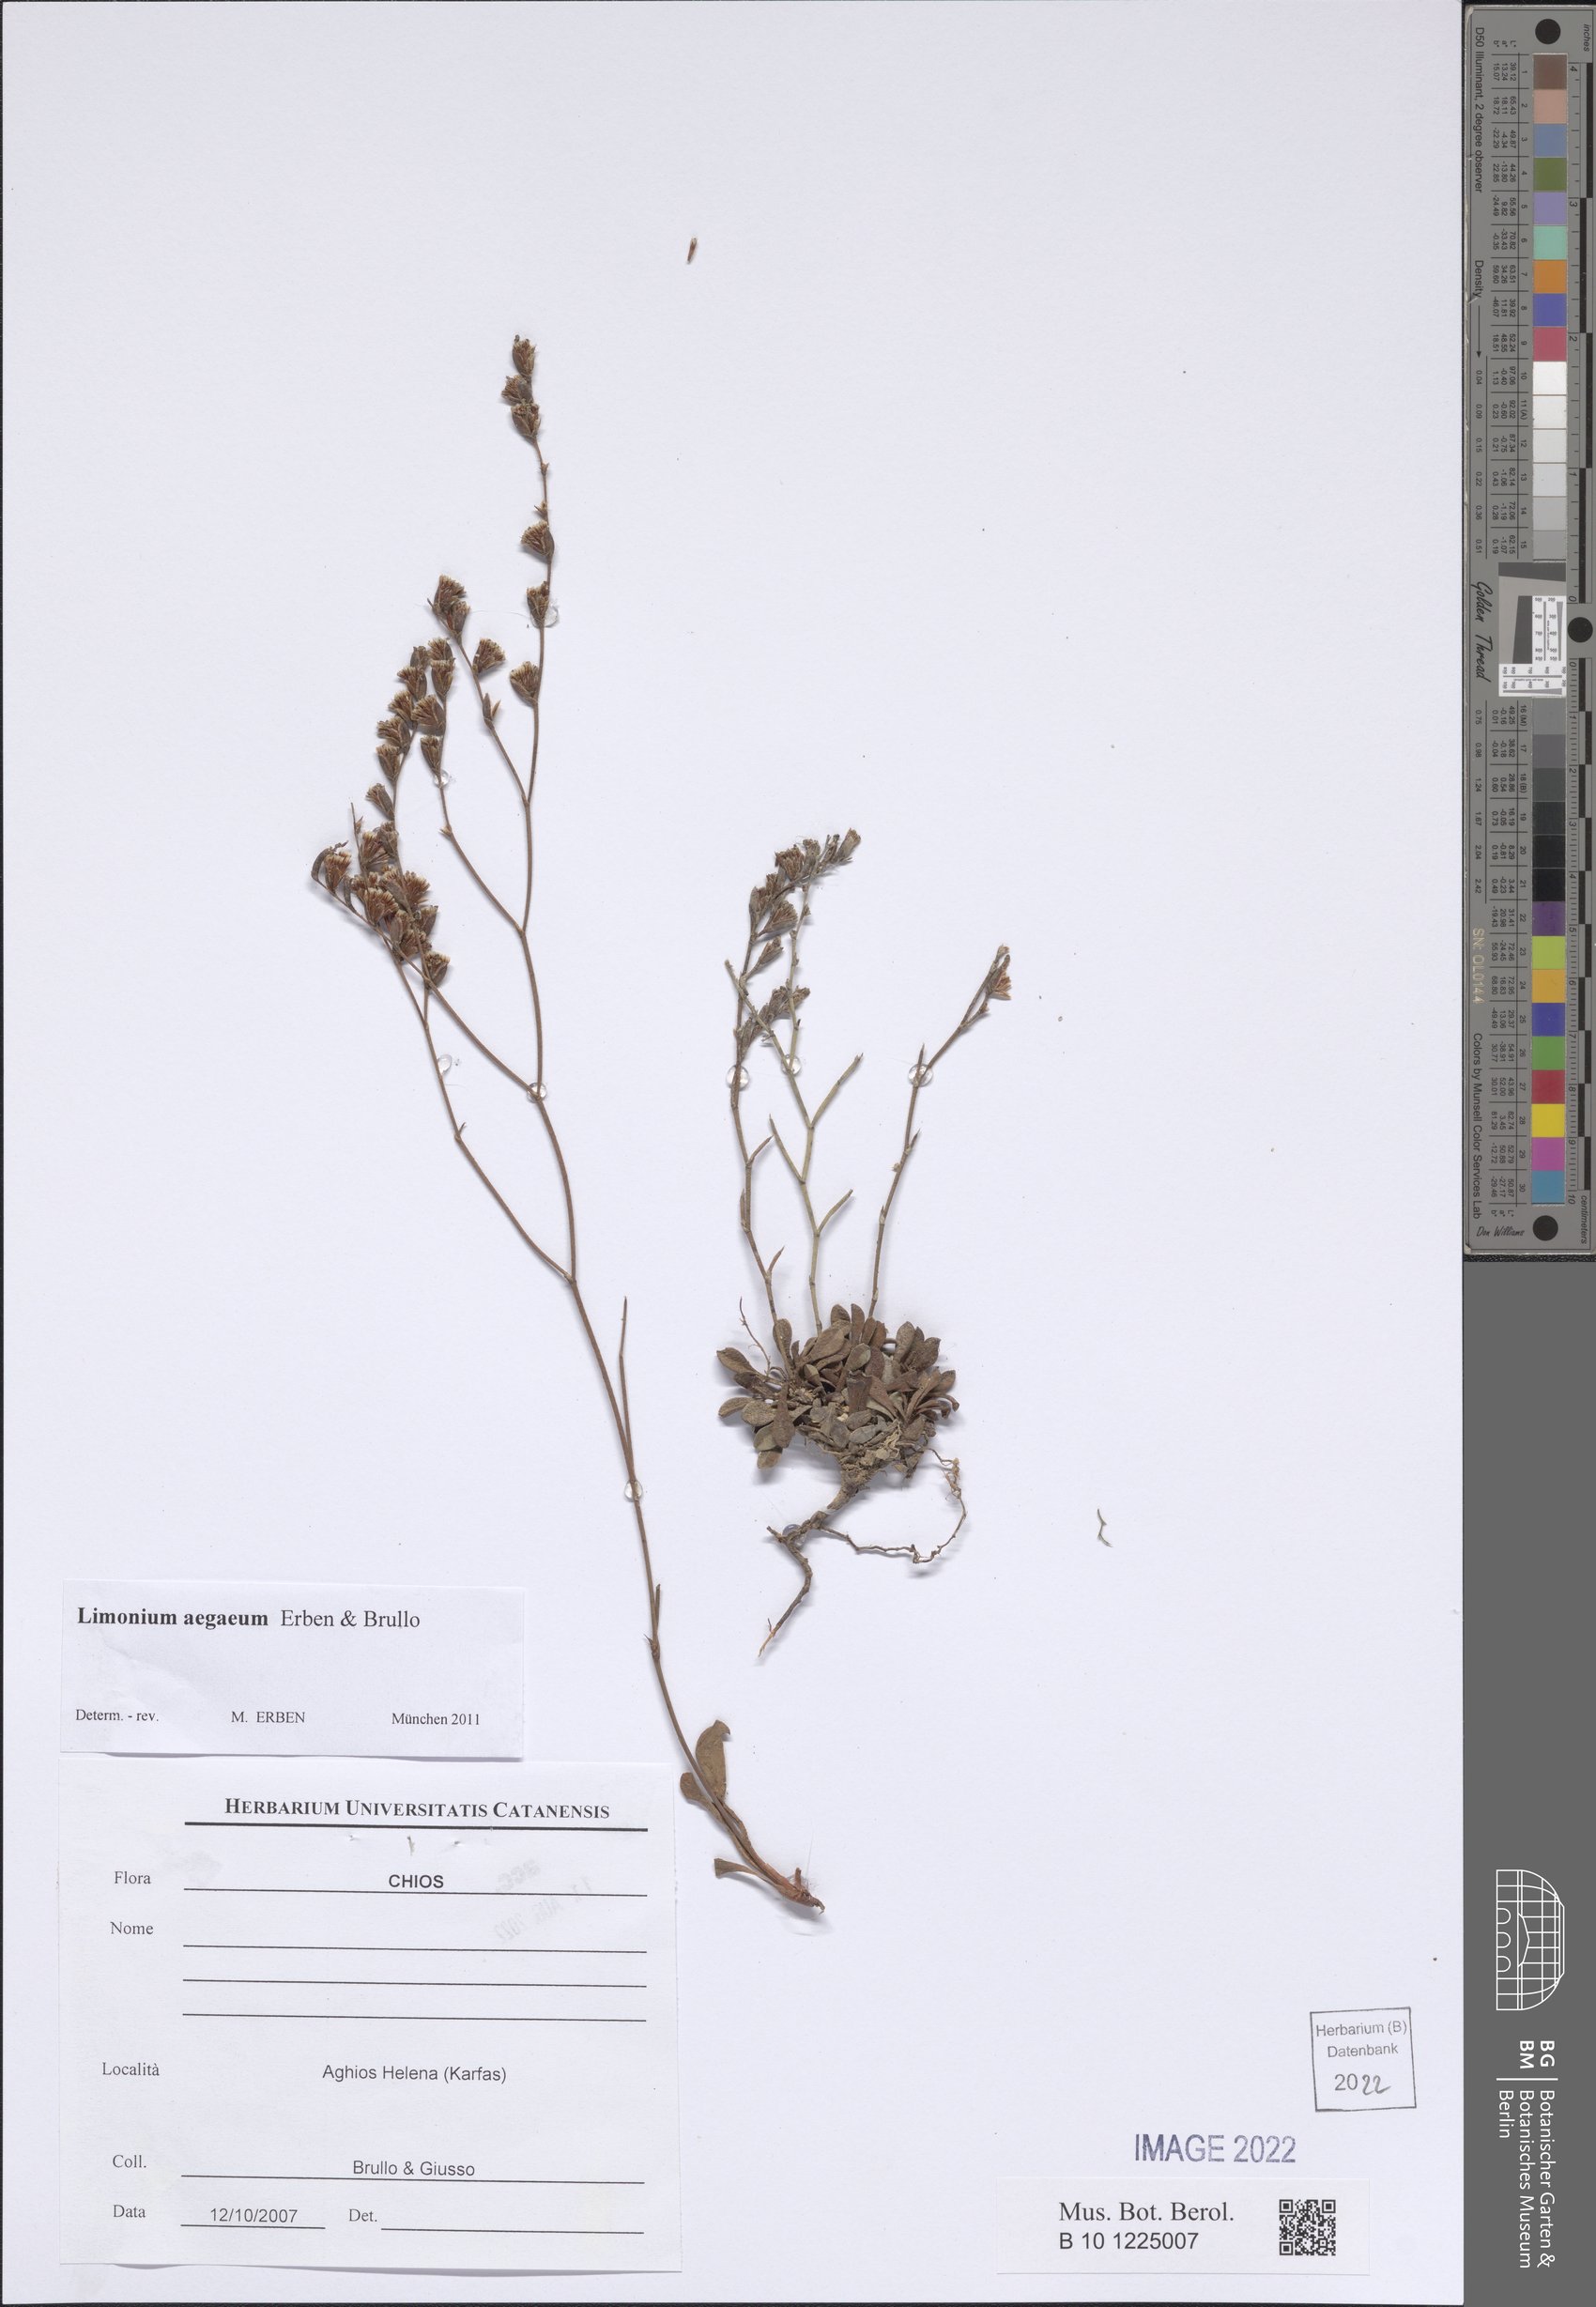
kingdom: Plantae
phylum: Tracheophyta
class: Magnoliopsida
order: Caryophyllales
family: Plumbaginaceae
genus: Limonium
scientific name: Limonium aegaeum
